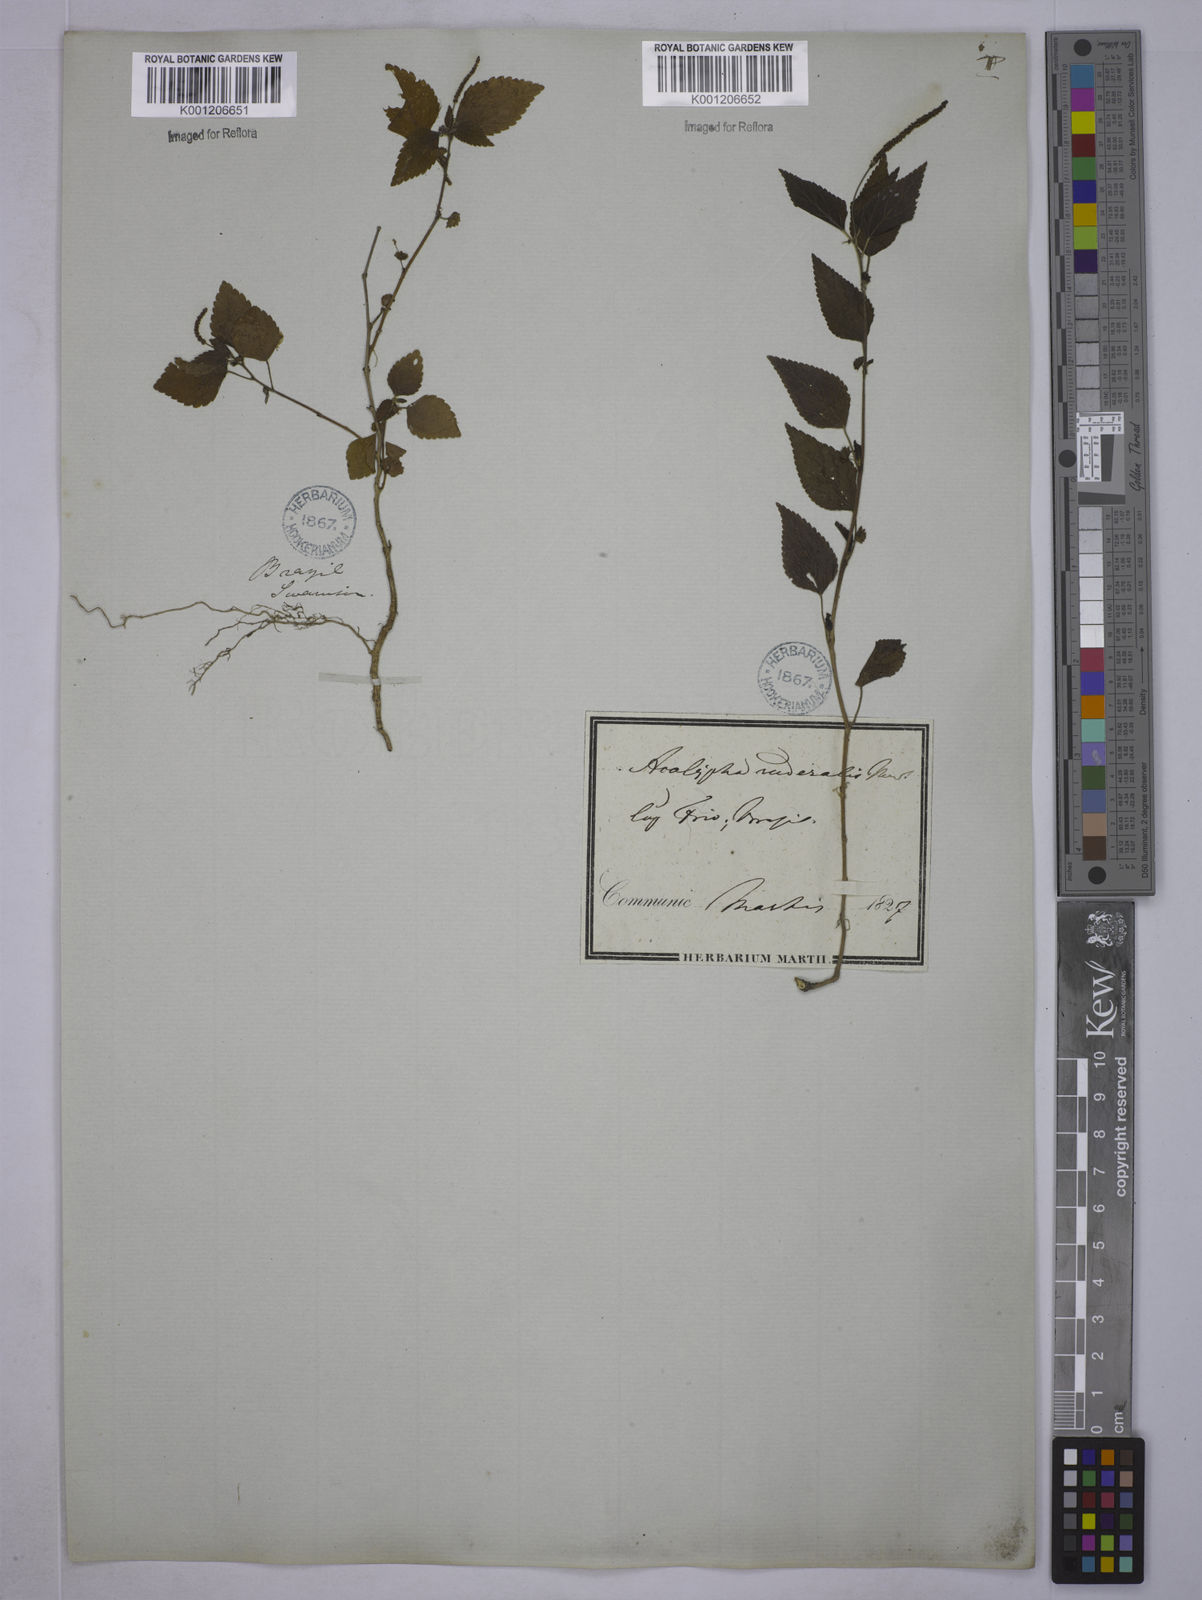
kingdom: Plantae
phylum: Tracheophyta
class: Magnoliopsida
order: Malpighiales
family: Euphorbiaceae
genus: Acalypha
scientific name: Acalypha pruriens
